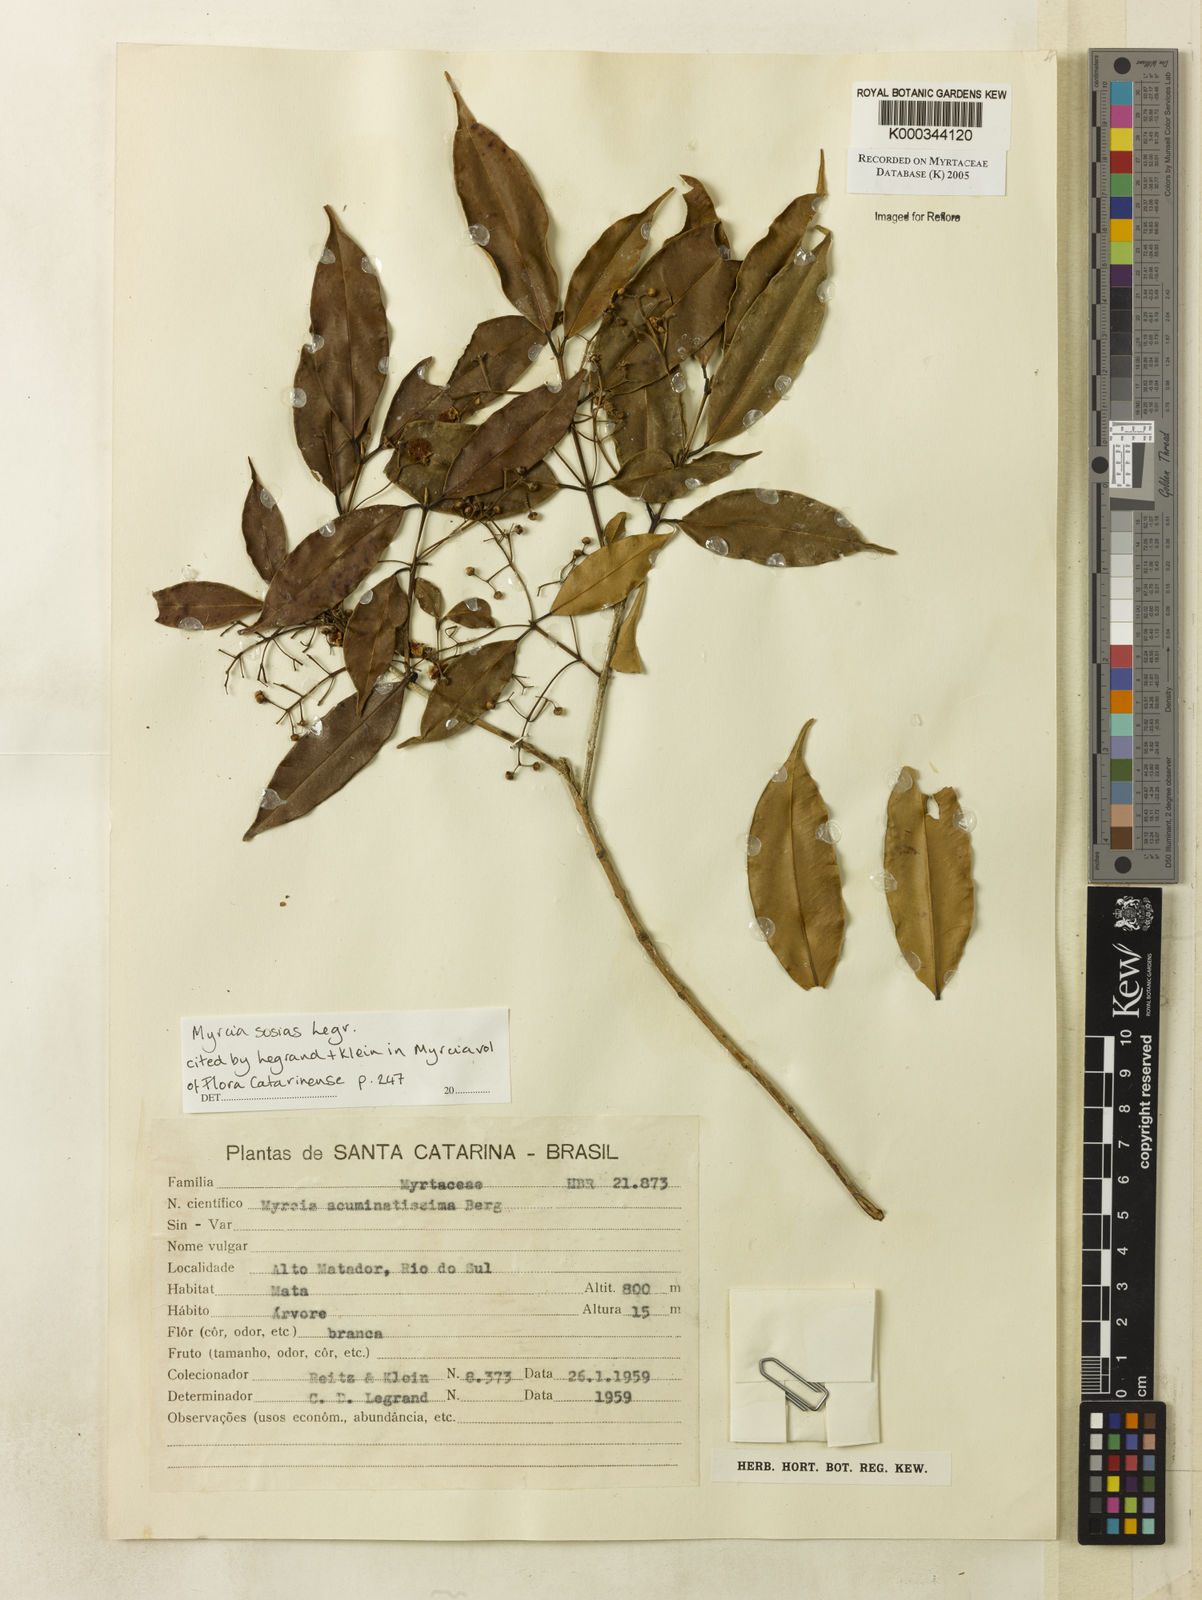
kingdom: Plantae
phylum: Tracheophyta
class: Magnoliopsida
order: Myrtales
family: Myrtaceae
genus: Myrcia
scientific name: Myrcia sosias
